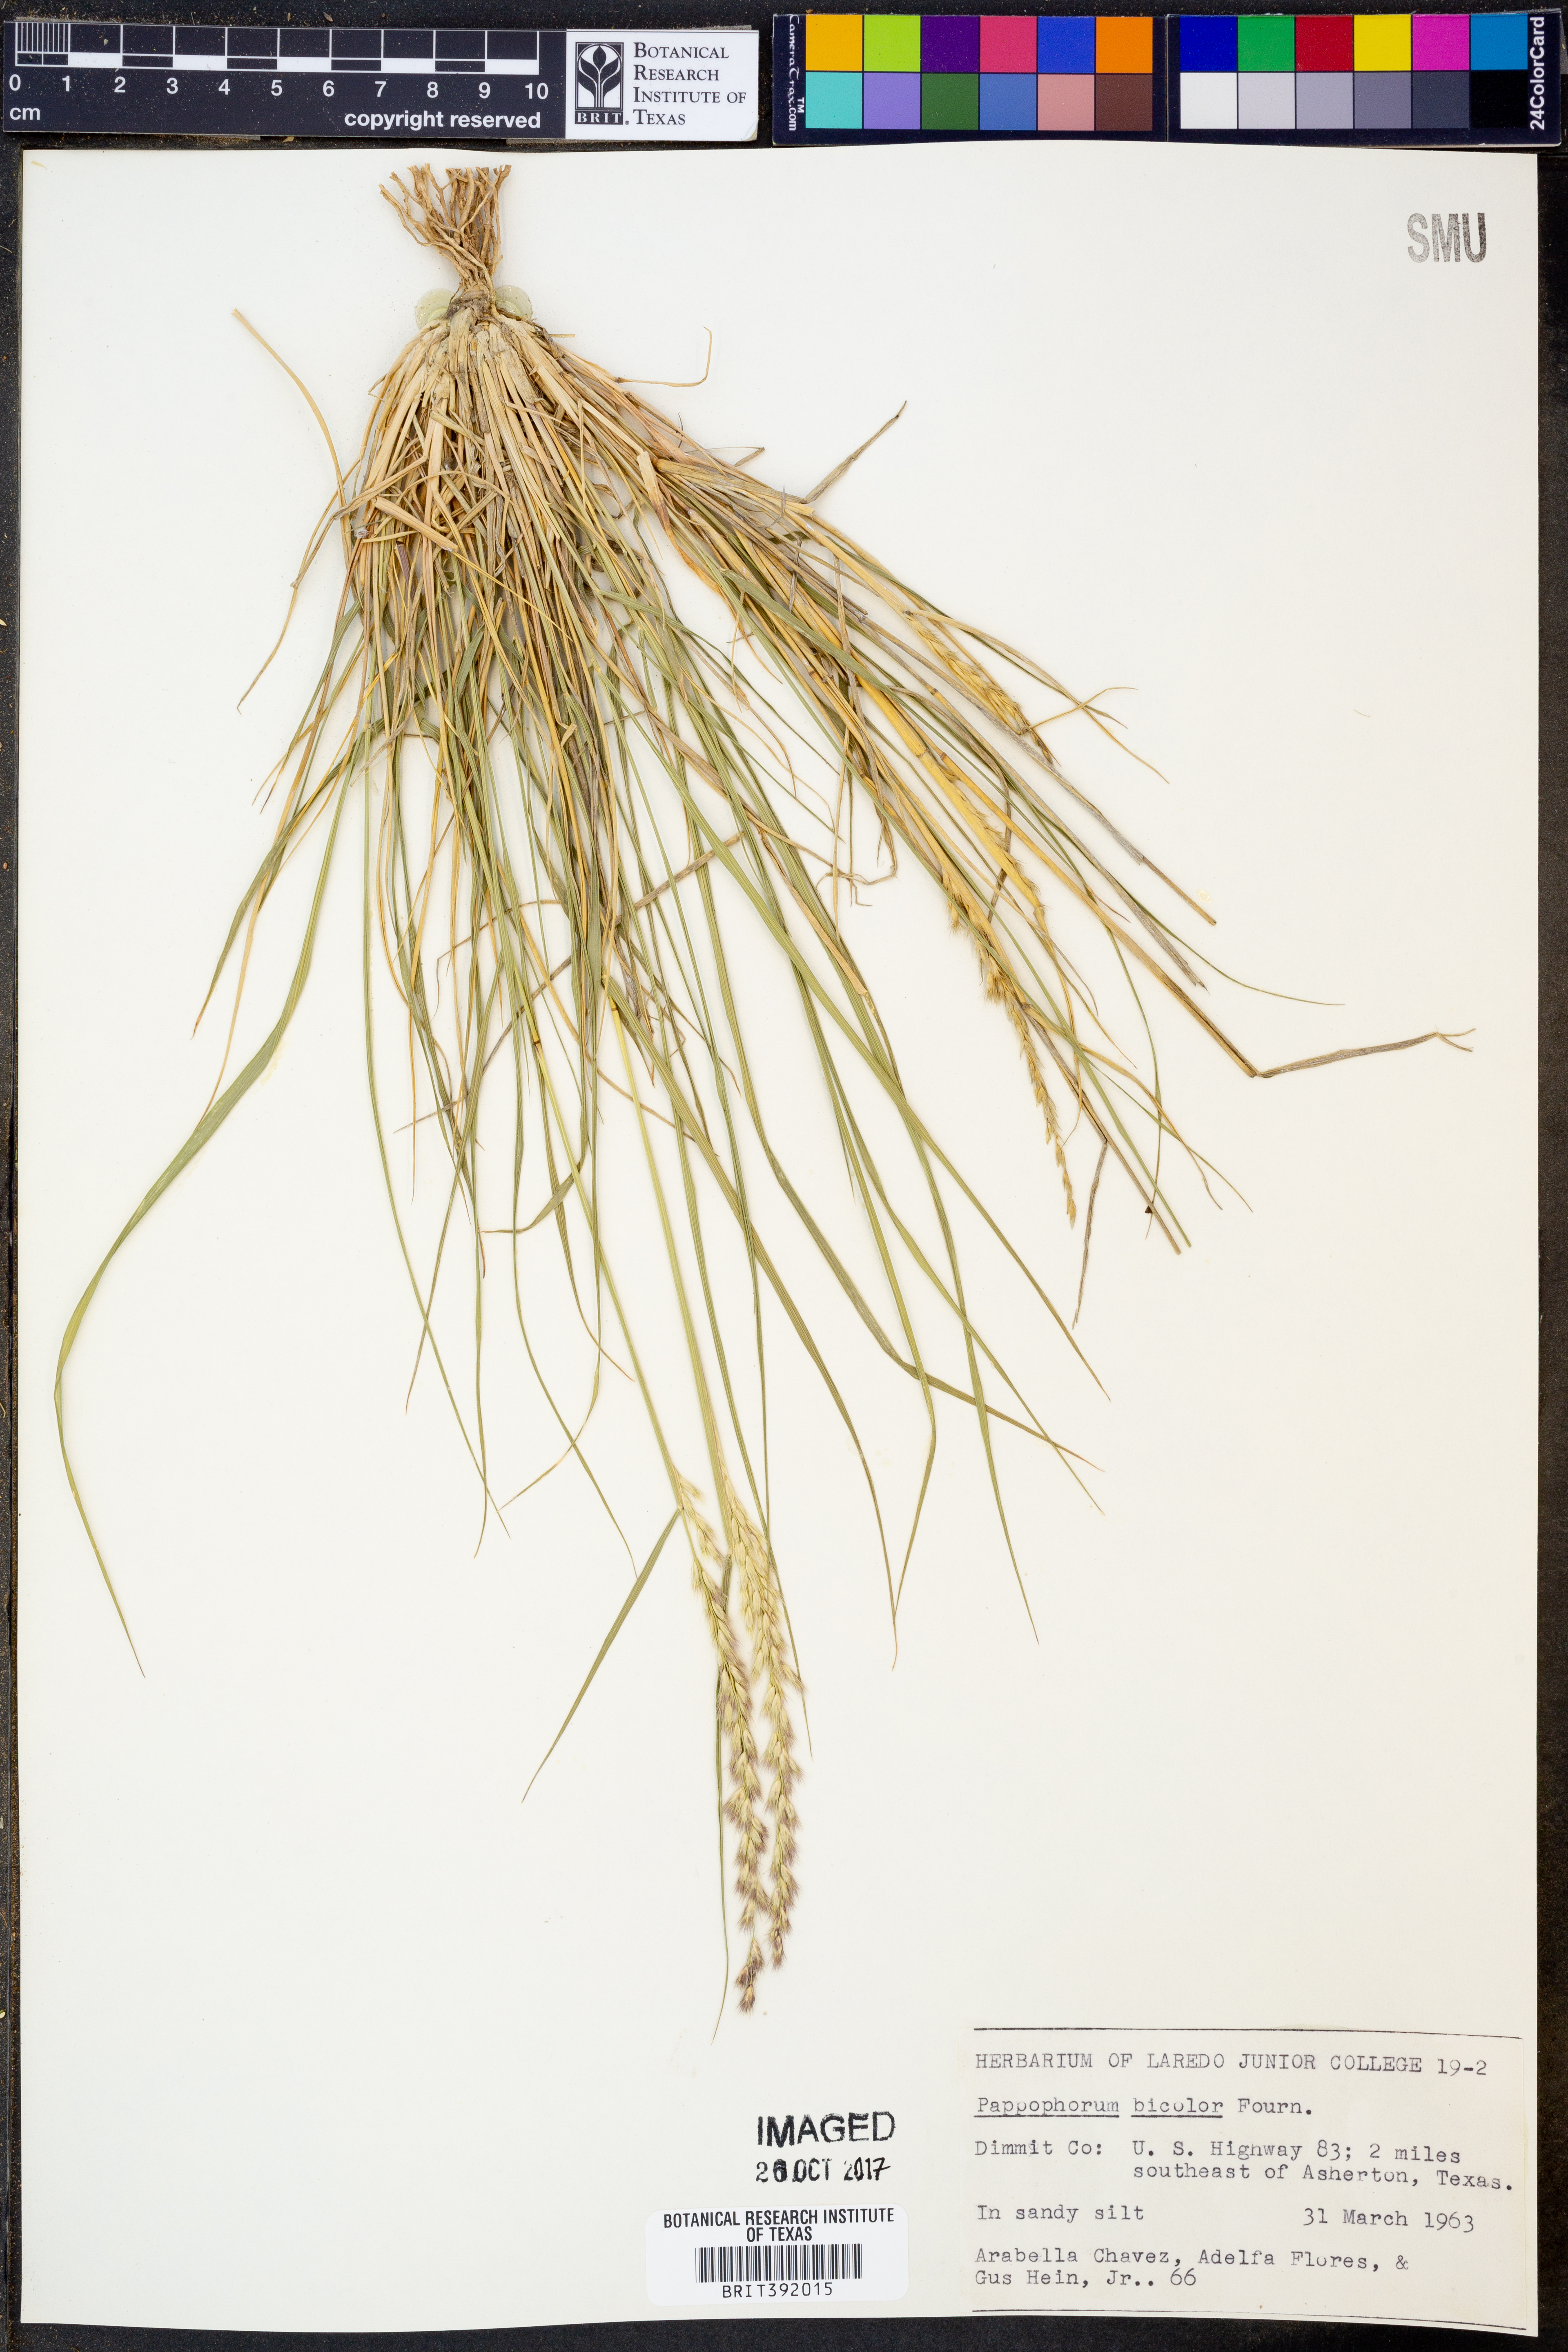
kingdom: Plantae
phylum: Tracheophyta
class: Liliopsida
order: Poales
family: Poaceae
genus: Pappophorum
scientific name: Pappophorum bicolor
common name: Pink pappus grass
